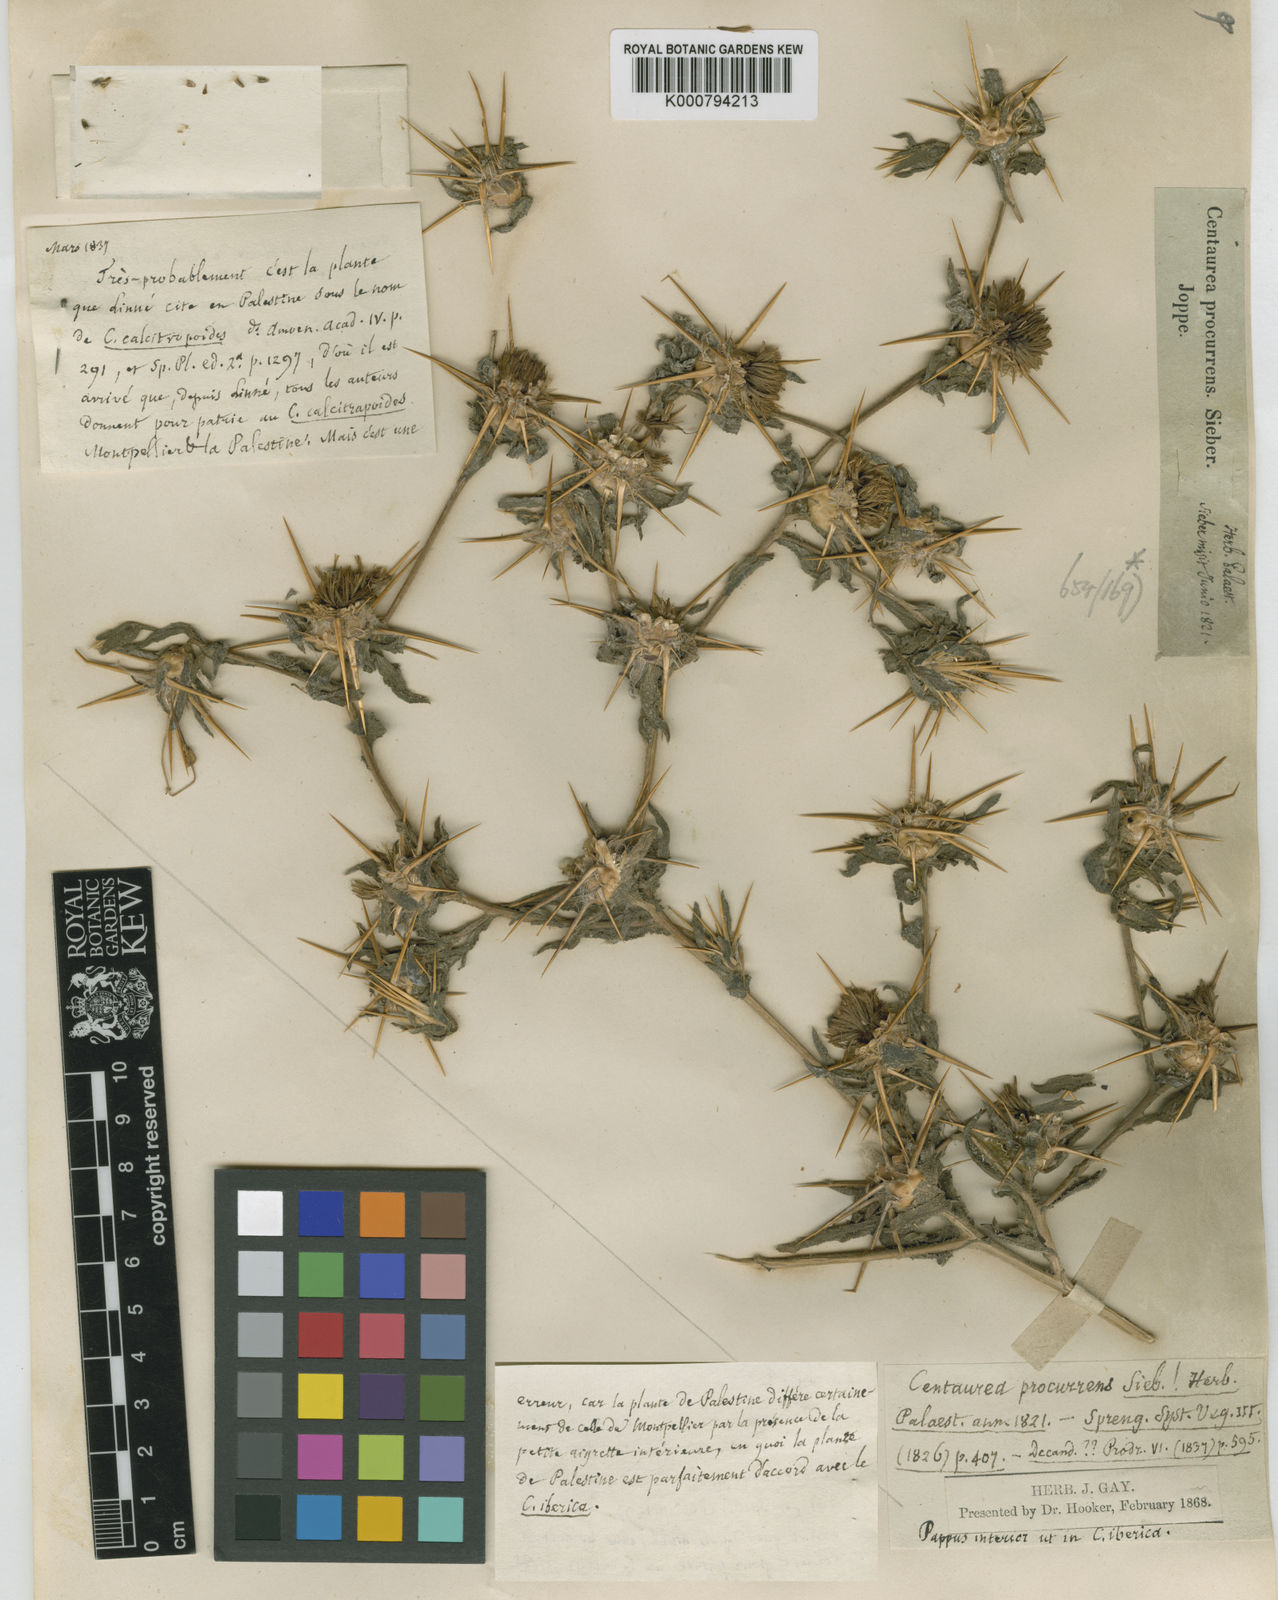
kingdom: Plantae
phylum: Tracheophyta
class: Magnoliopsida
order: Asterales
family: Asteraceae
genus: Centaurea
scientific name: Centaurea
